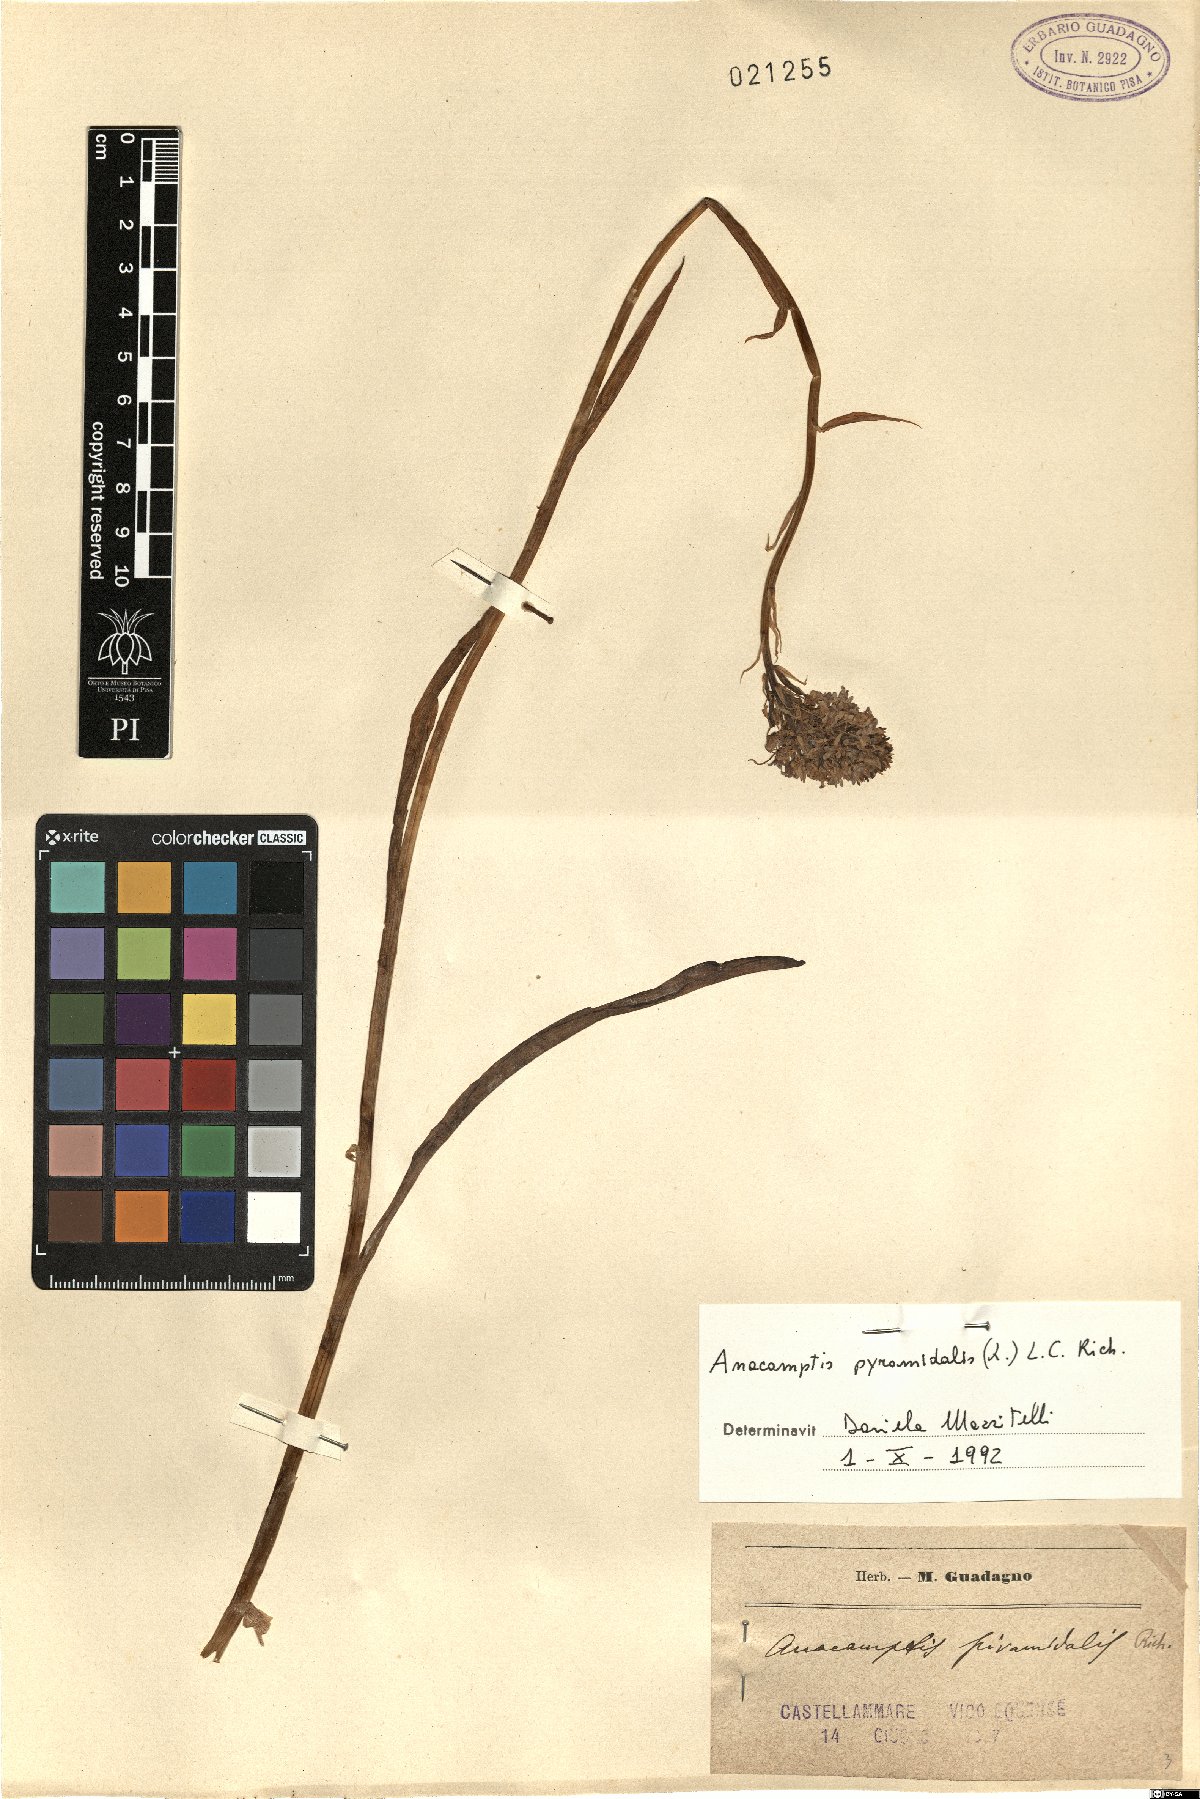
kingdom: Plantae
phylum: Tracheophyta
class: Liliopsida
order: Asparagales
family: Orchidaceae
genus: Anacamptis
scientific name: Anacamptis pyramidalis
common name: Pyramidal orchid
